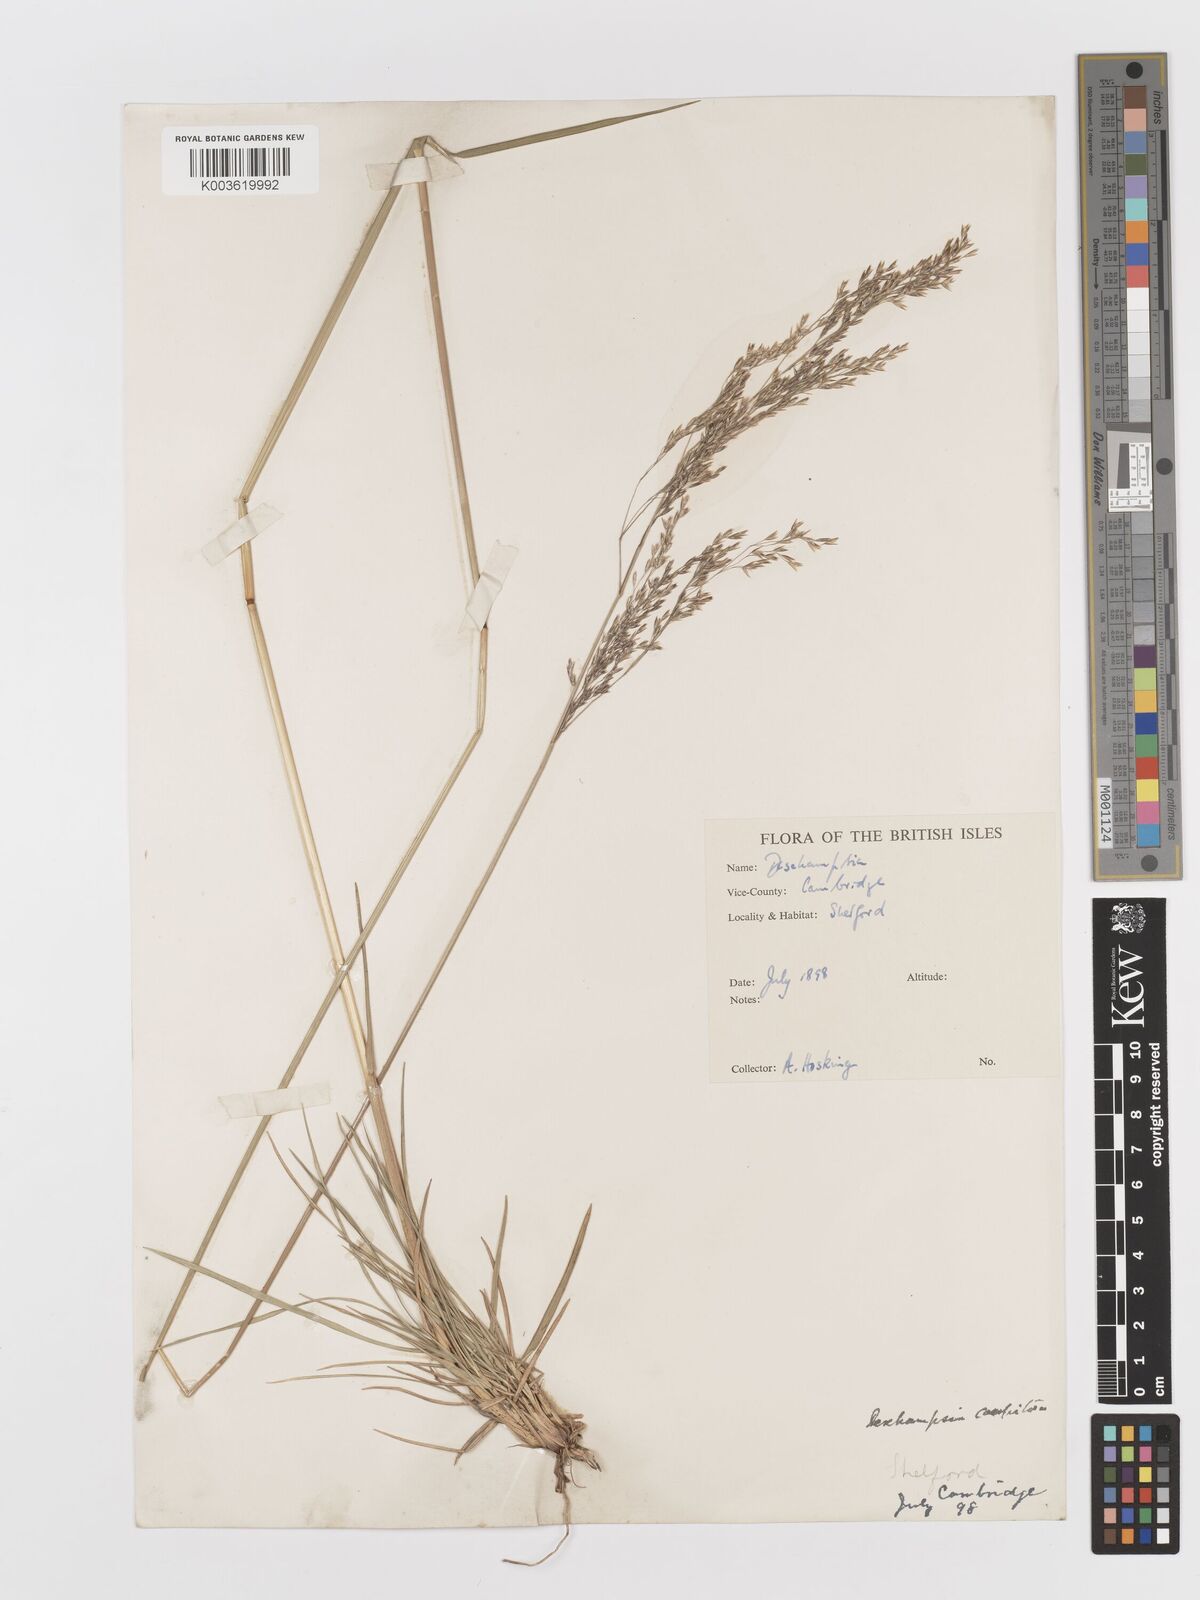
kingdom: Plantae
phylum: Tracheophyta
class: Liliopsida
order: Poales
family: Poaceae
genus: Deschampsia
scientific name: Deschampsia cespitosa
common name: Tufted hair-grass
